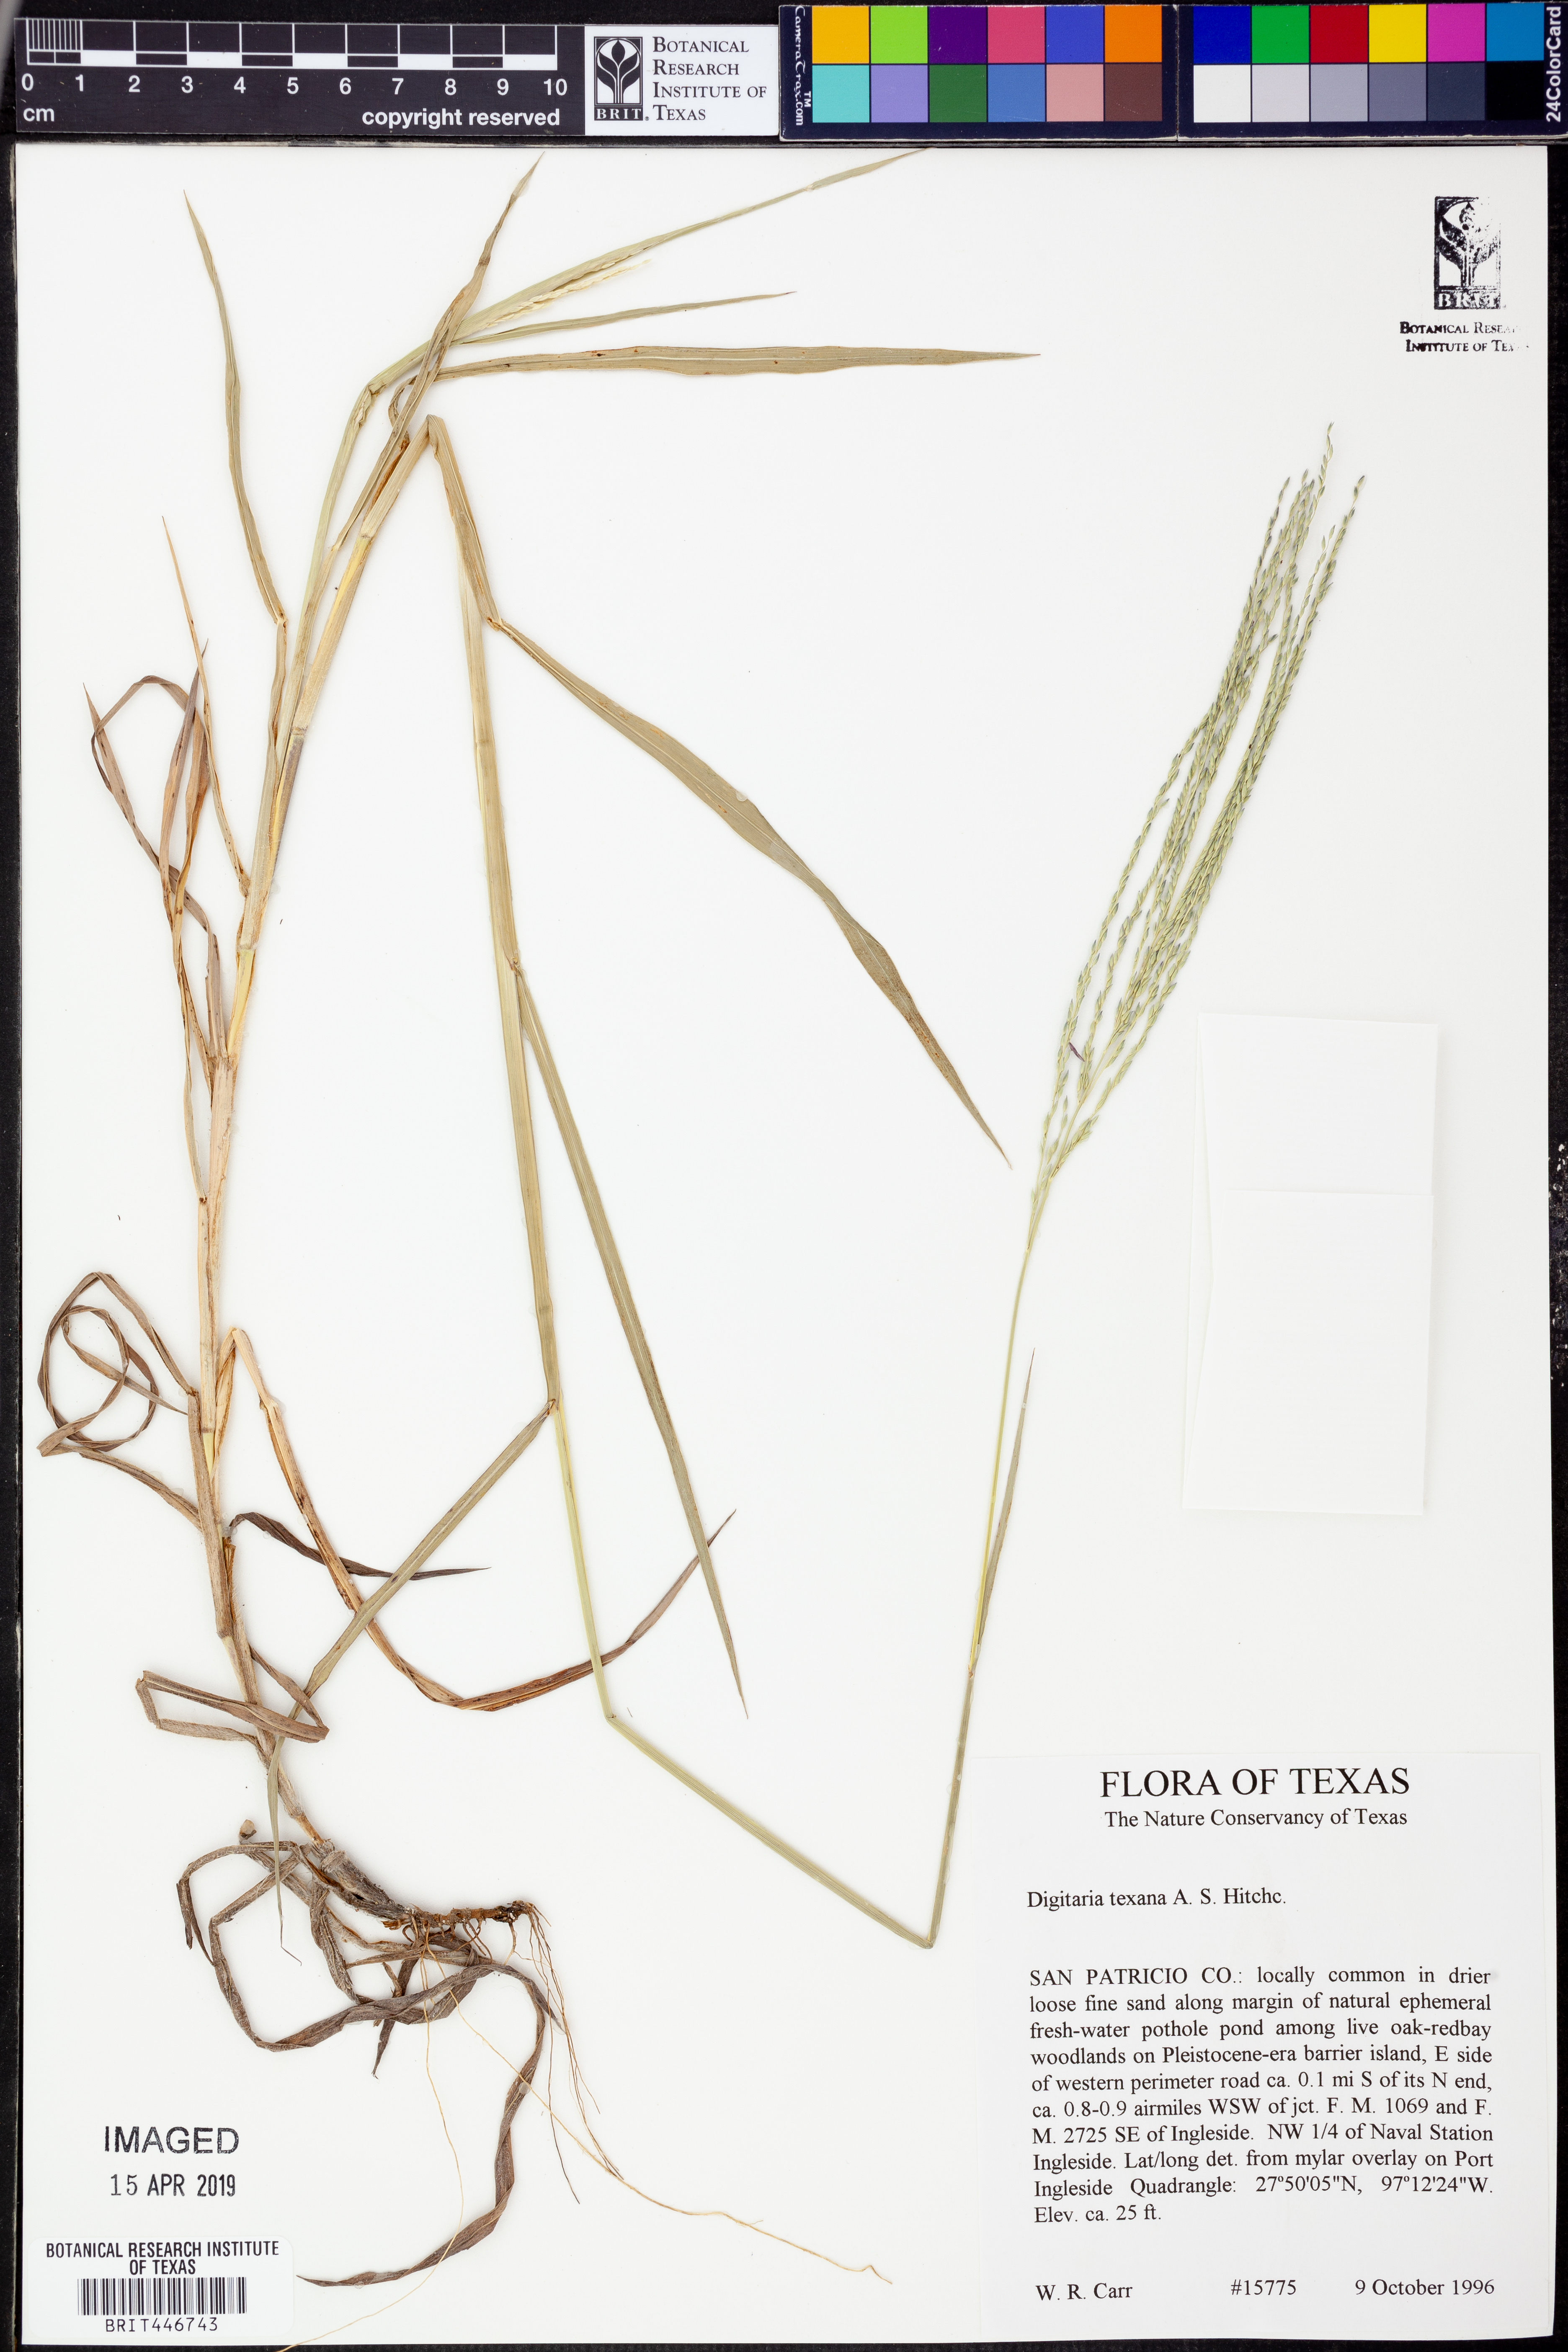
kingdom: Plantae
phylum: Tracheophyta
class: Liliopsida
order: Poales
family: Poaceae
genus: Digitaria
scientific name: Digitaria texana
